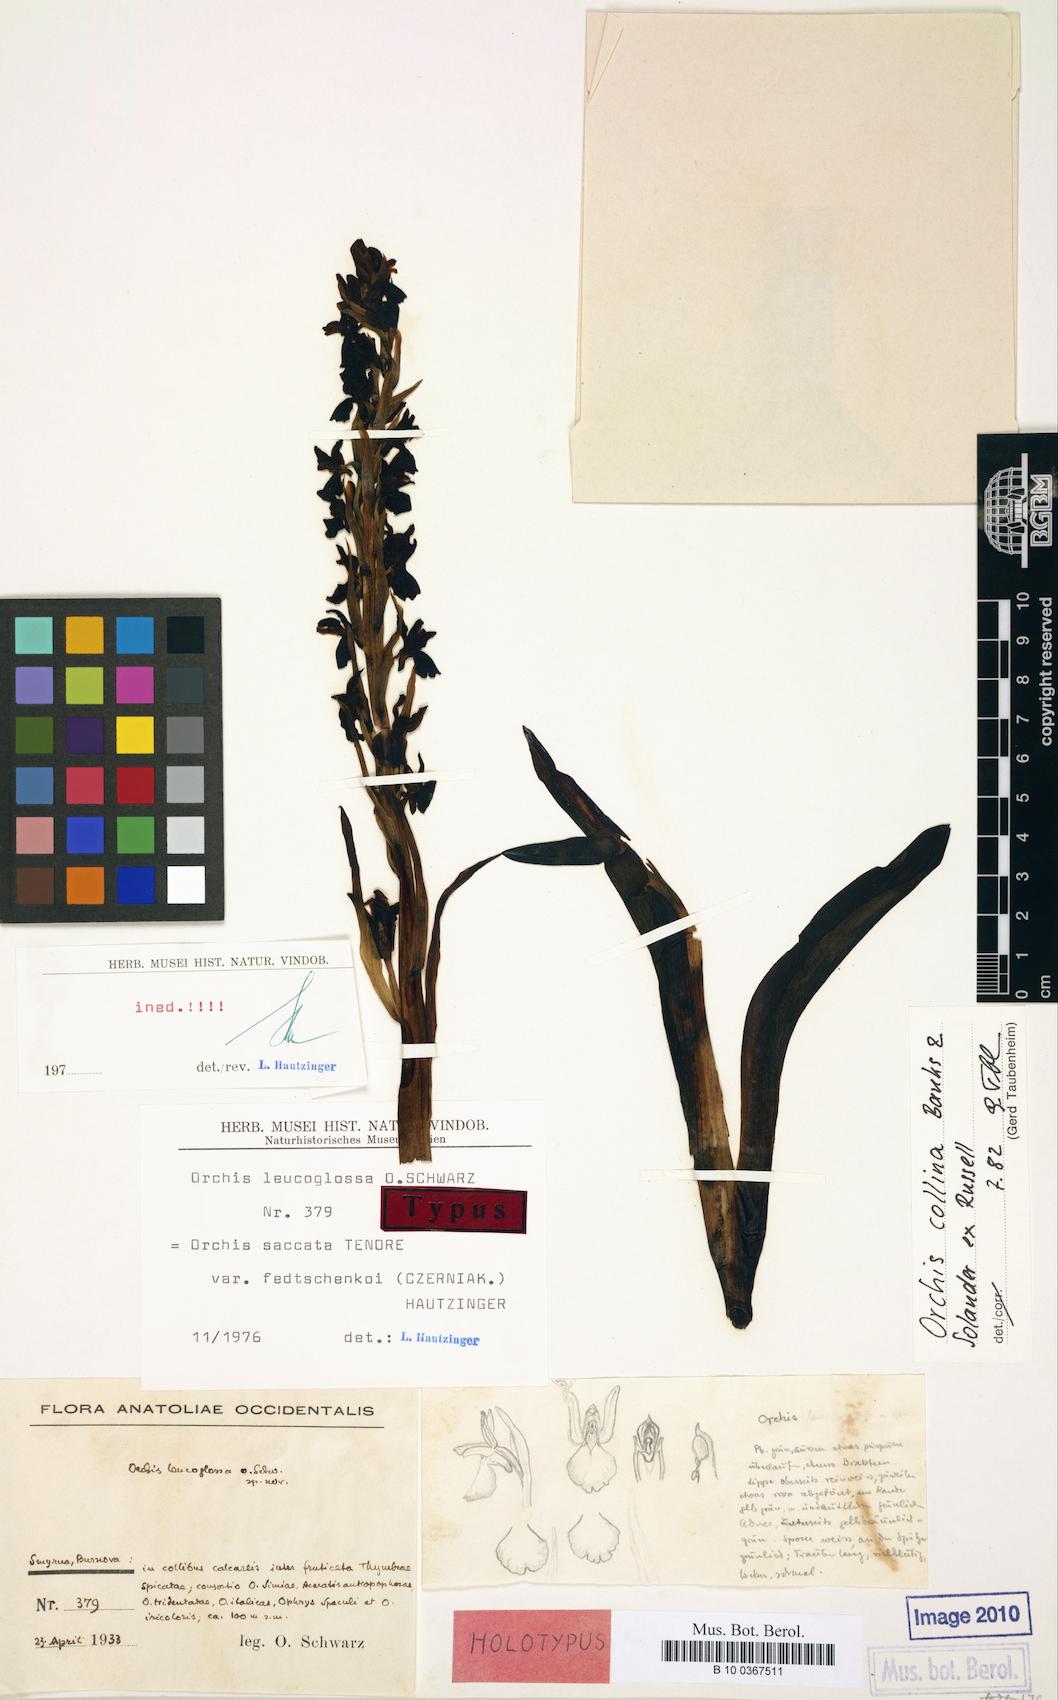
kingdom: Plantae
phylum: Tracheophyta
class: Liliopsida
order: Asparagales
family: Orchidaceae
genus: Anacamptis
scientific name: Anacamptis collina
